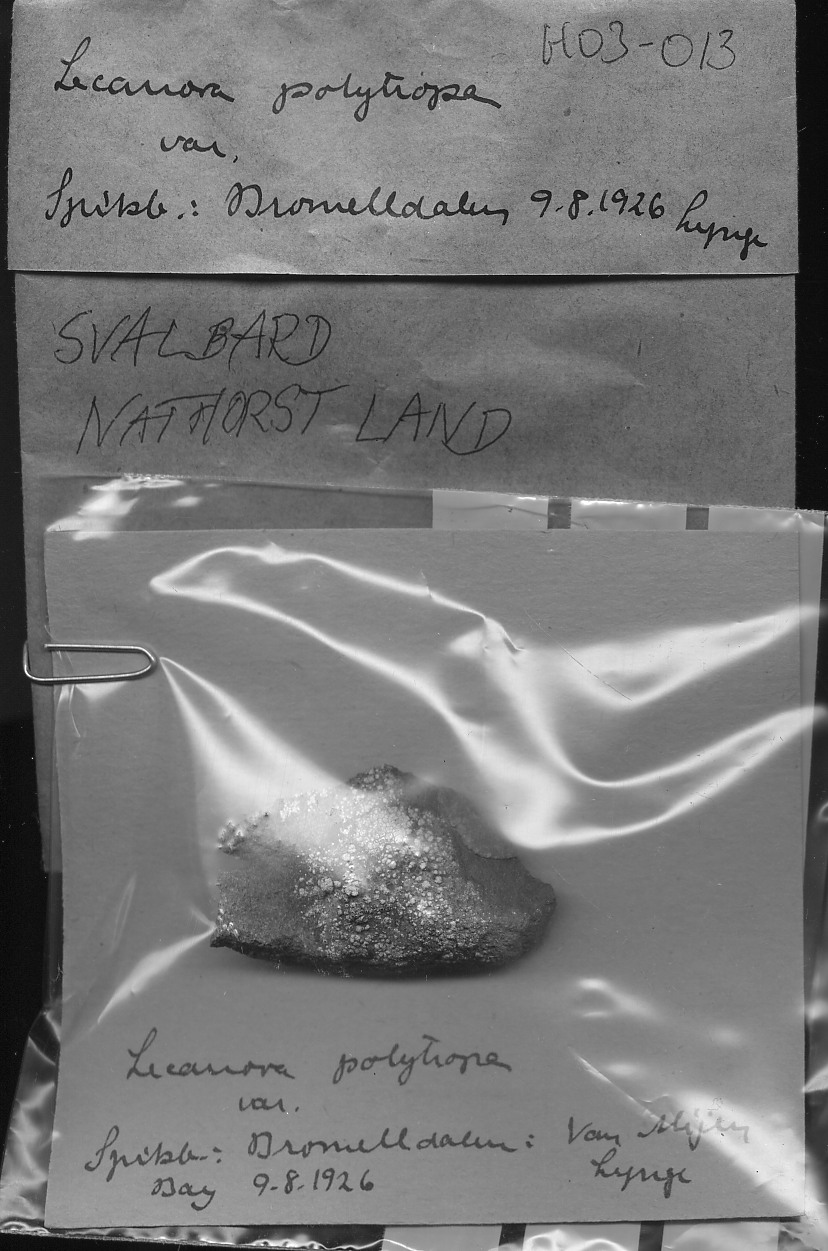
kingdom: Fungi
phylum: Ascomycota
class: Lecanoromycetes
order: Lecanorales
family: Lecanoraceae
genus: Lecanora
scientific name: Lecanora polytropa
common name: Granite-speck rim lichen
